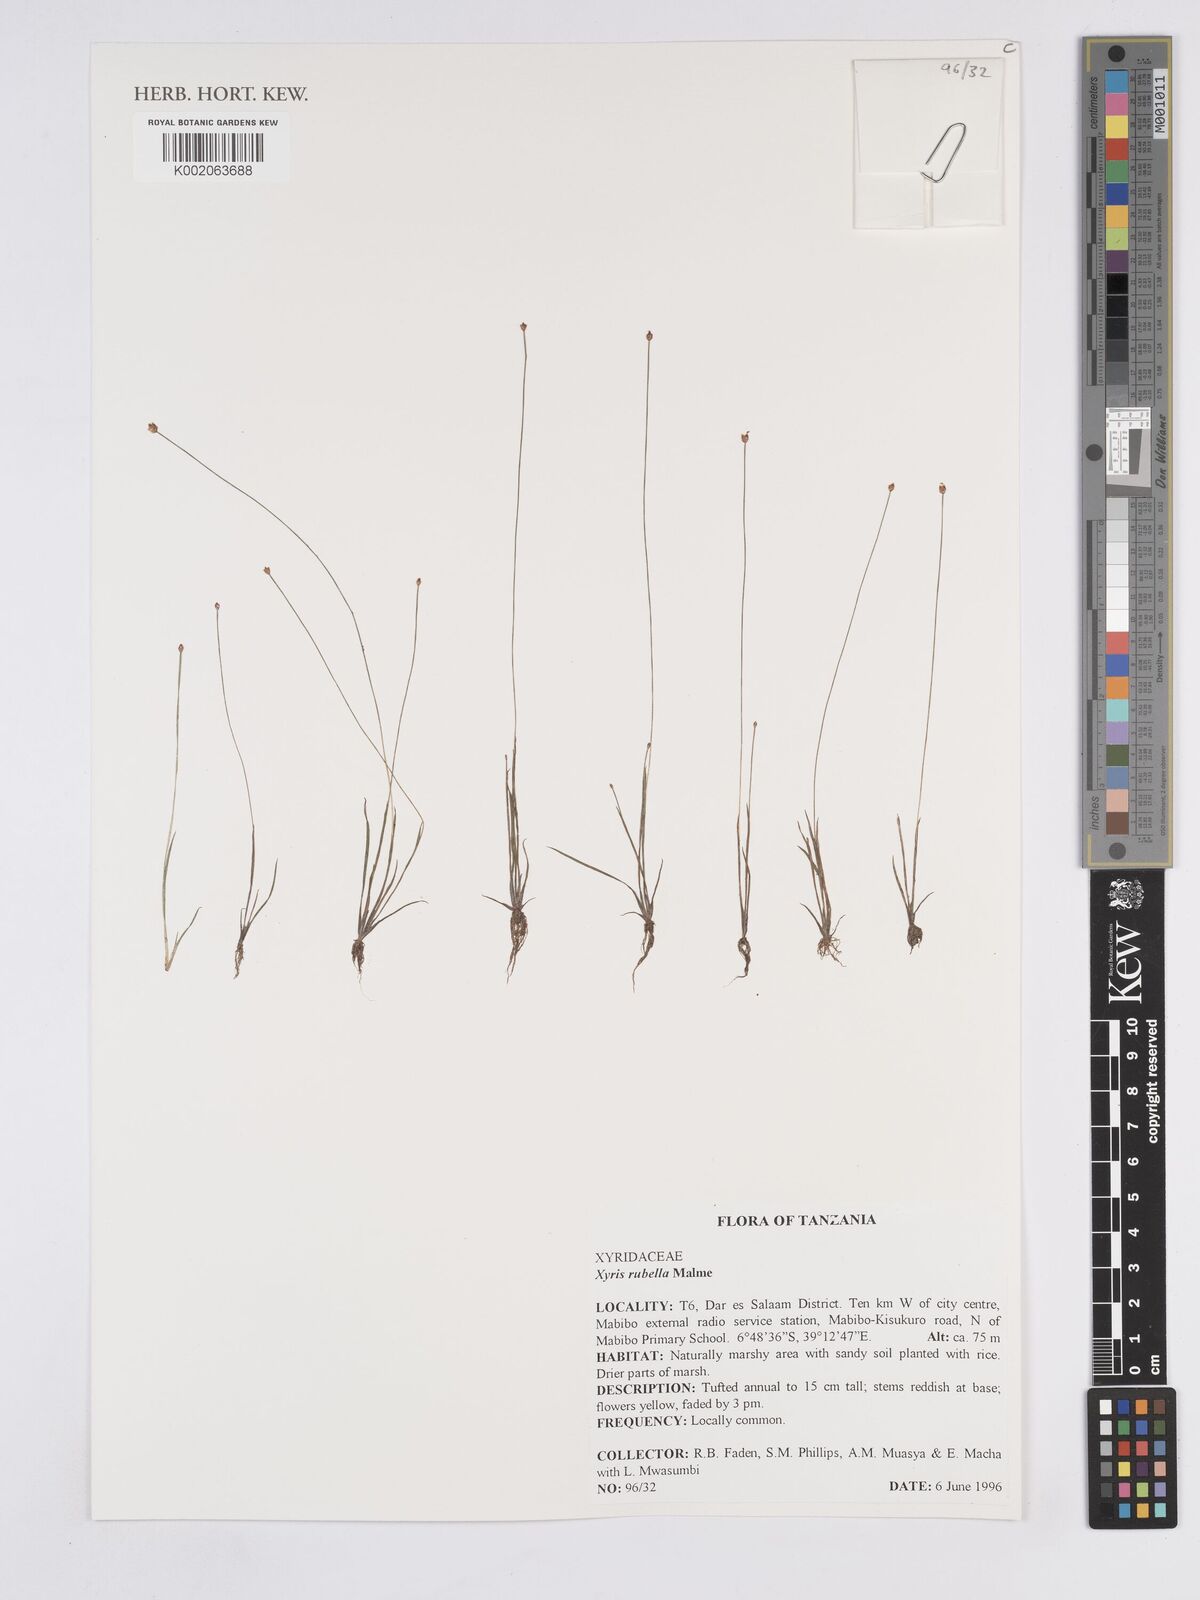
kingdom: Plantae
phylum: Tracheophyta
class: Liliopsida
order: Poales
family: Xyridaceae
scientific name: Xyridaceae
